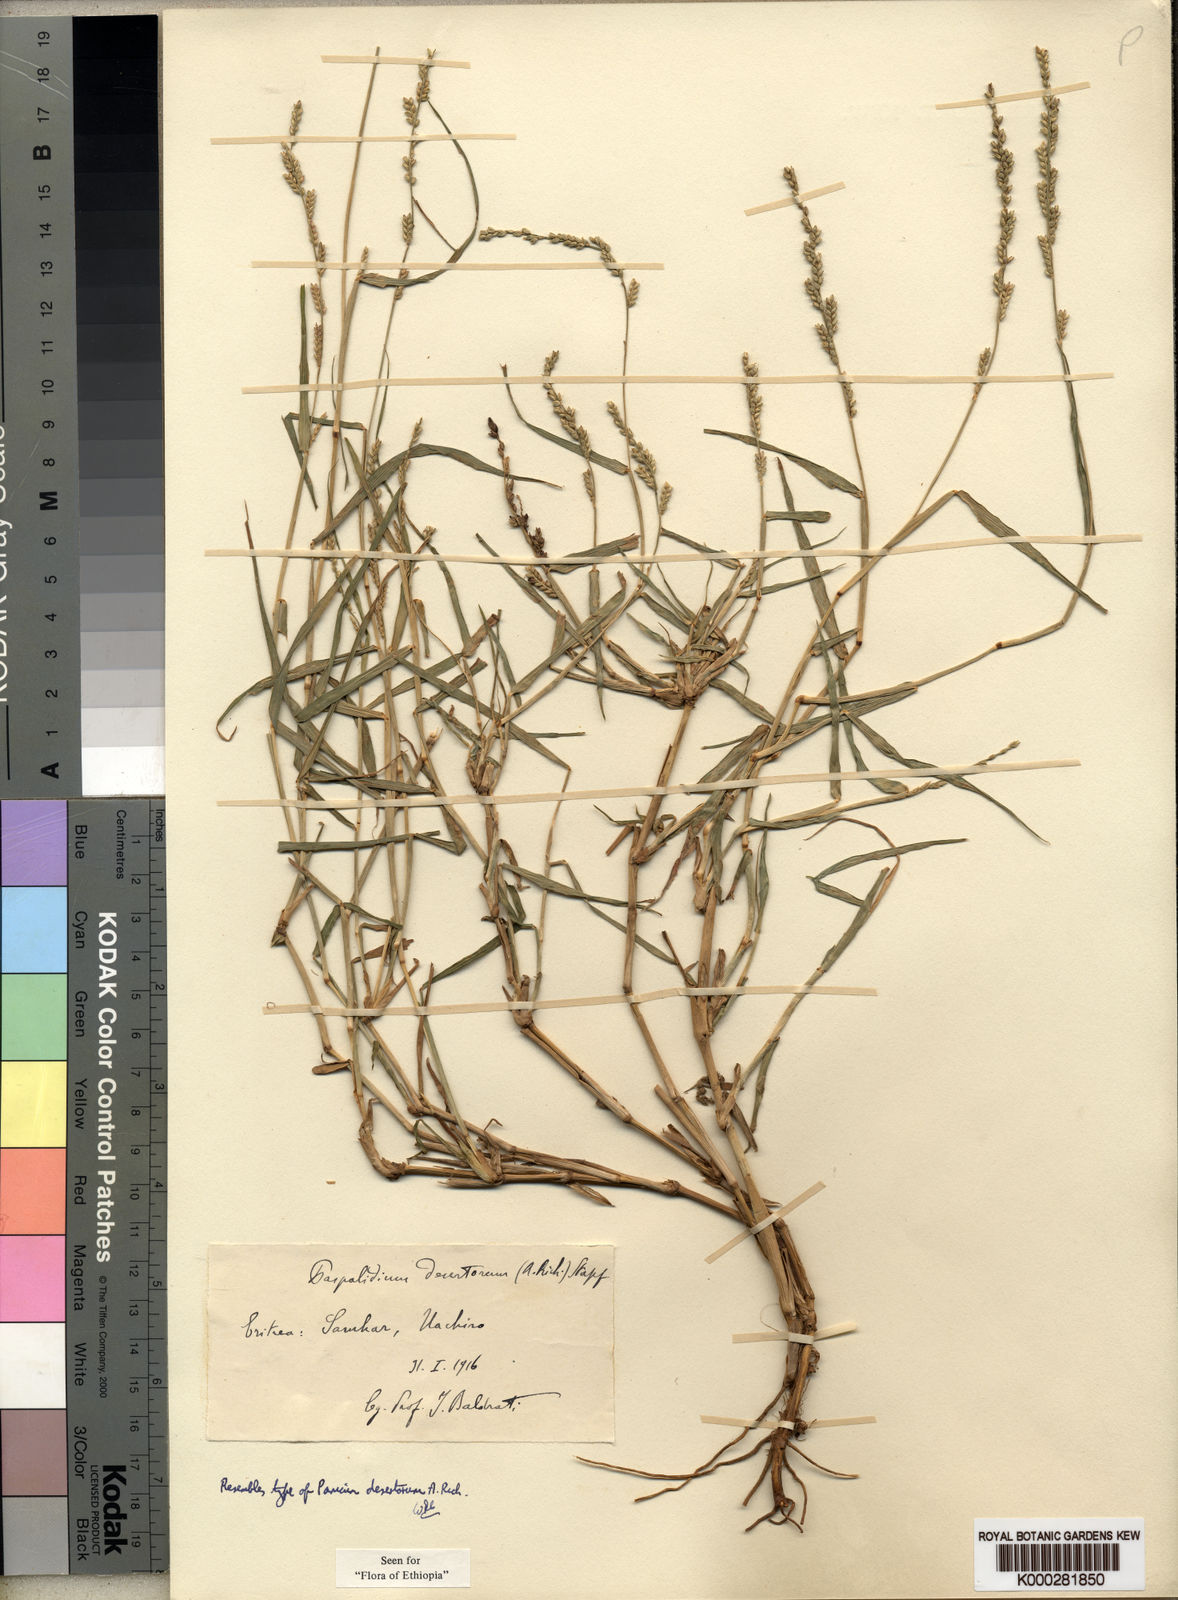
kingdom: Plantae
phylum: Tracheophyta
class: Liliopsida
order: Poales
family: Poaceae
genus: Setaria
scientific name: Setaria desertorum
